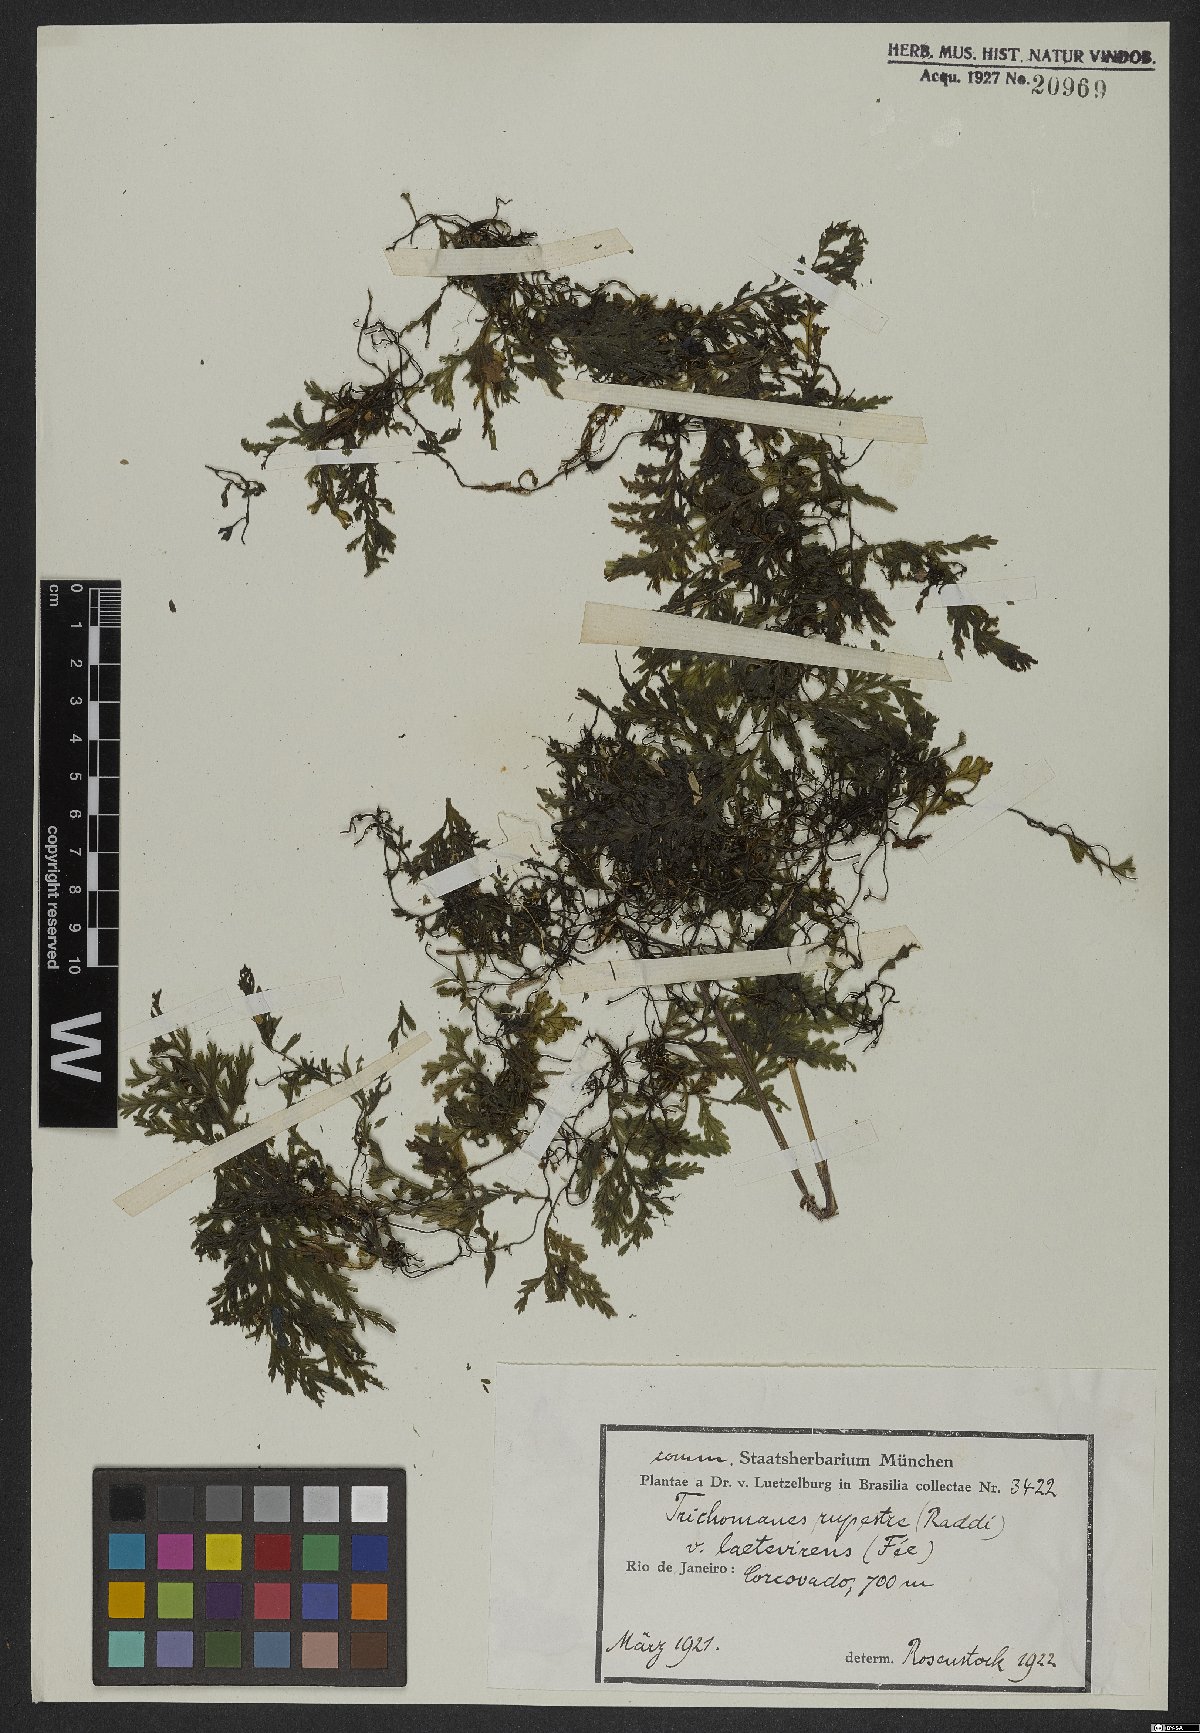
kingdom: Plantae
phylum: Tracheophyta
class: Polypodiopsida
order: Hymenophyllales
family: Hymenophyllaceae
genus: Vandenboschia
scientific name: Vandenboschia radicans
